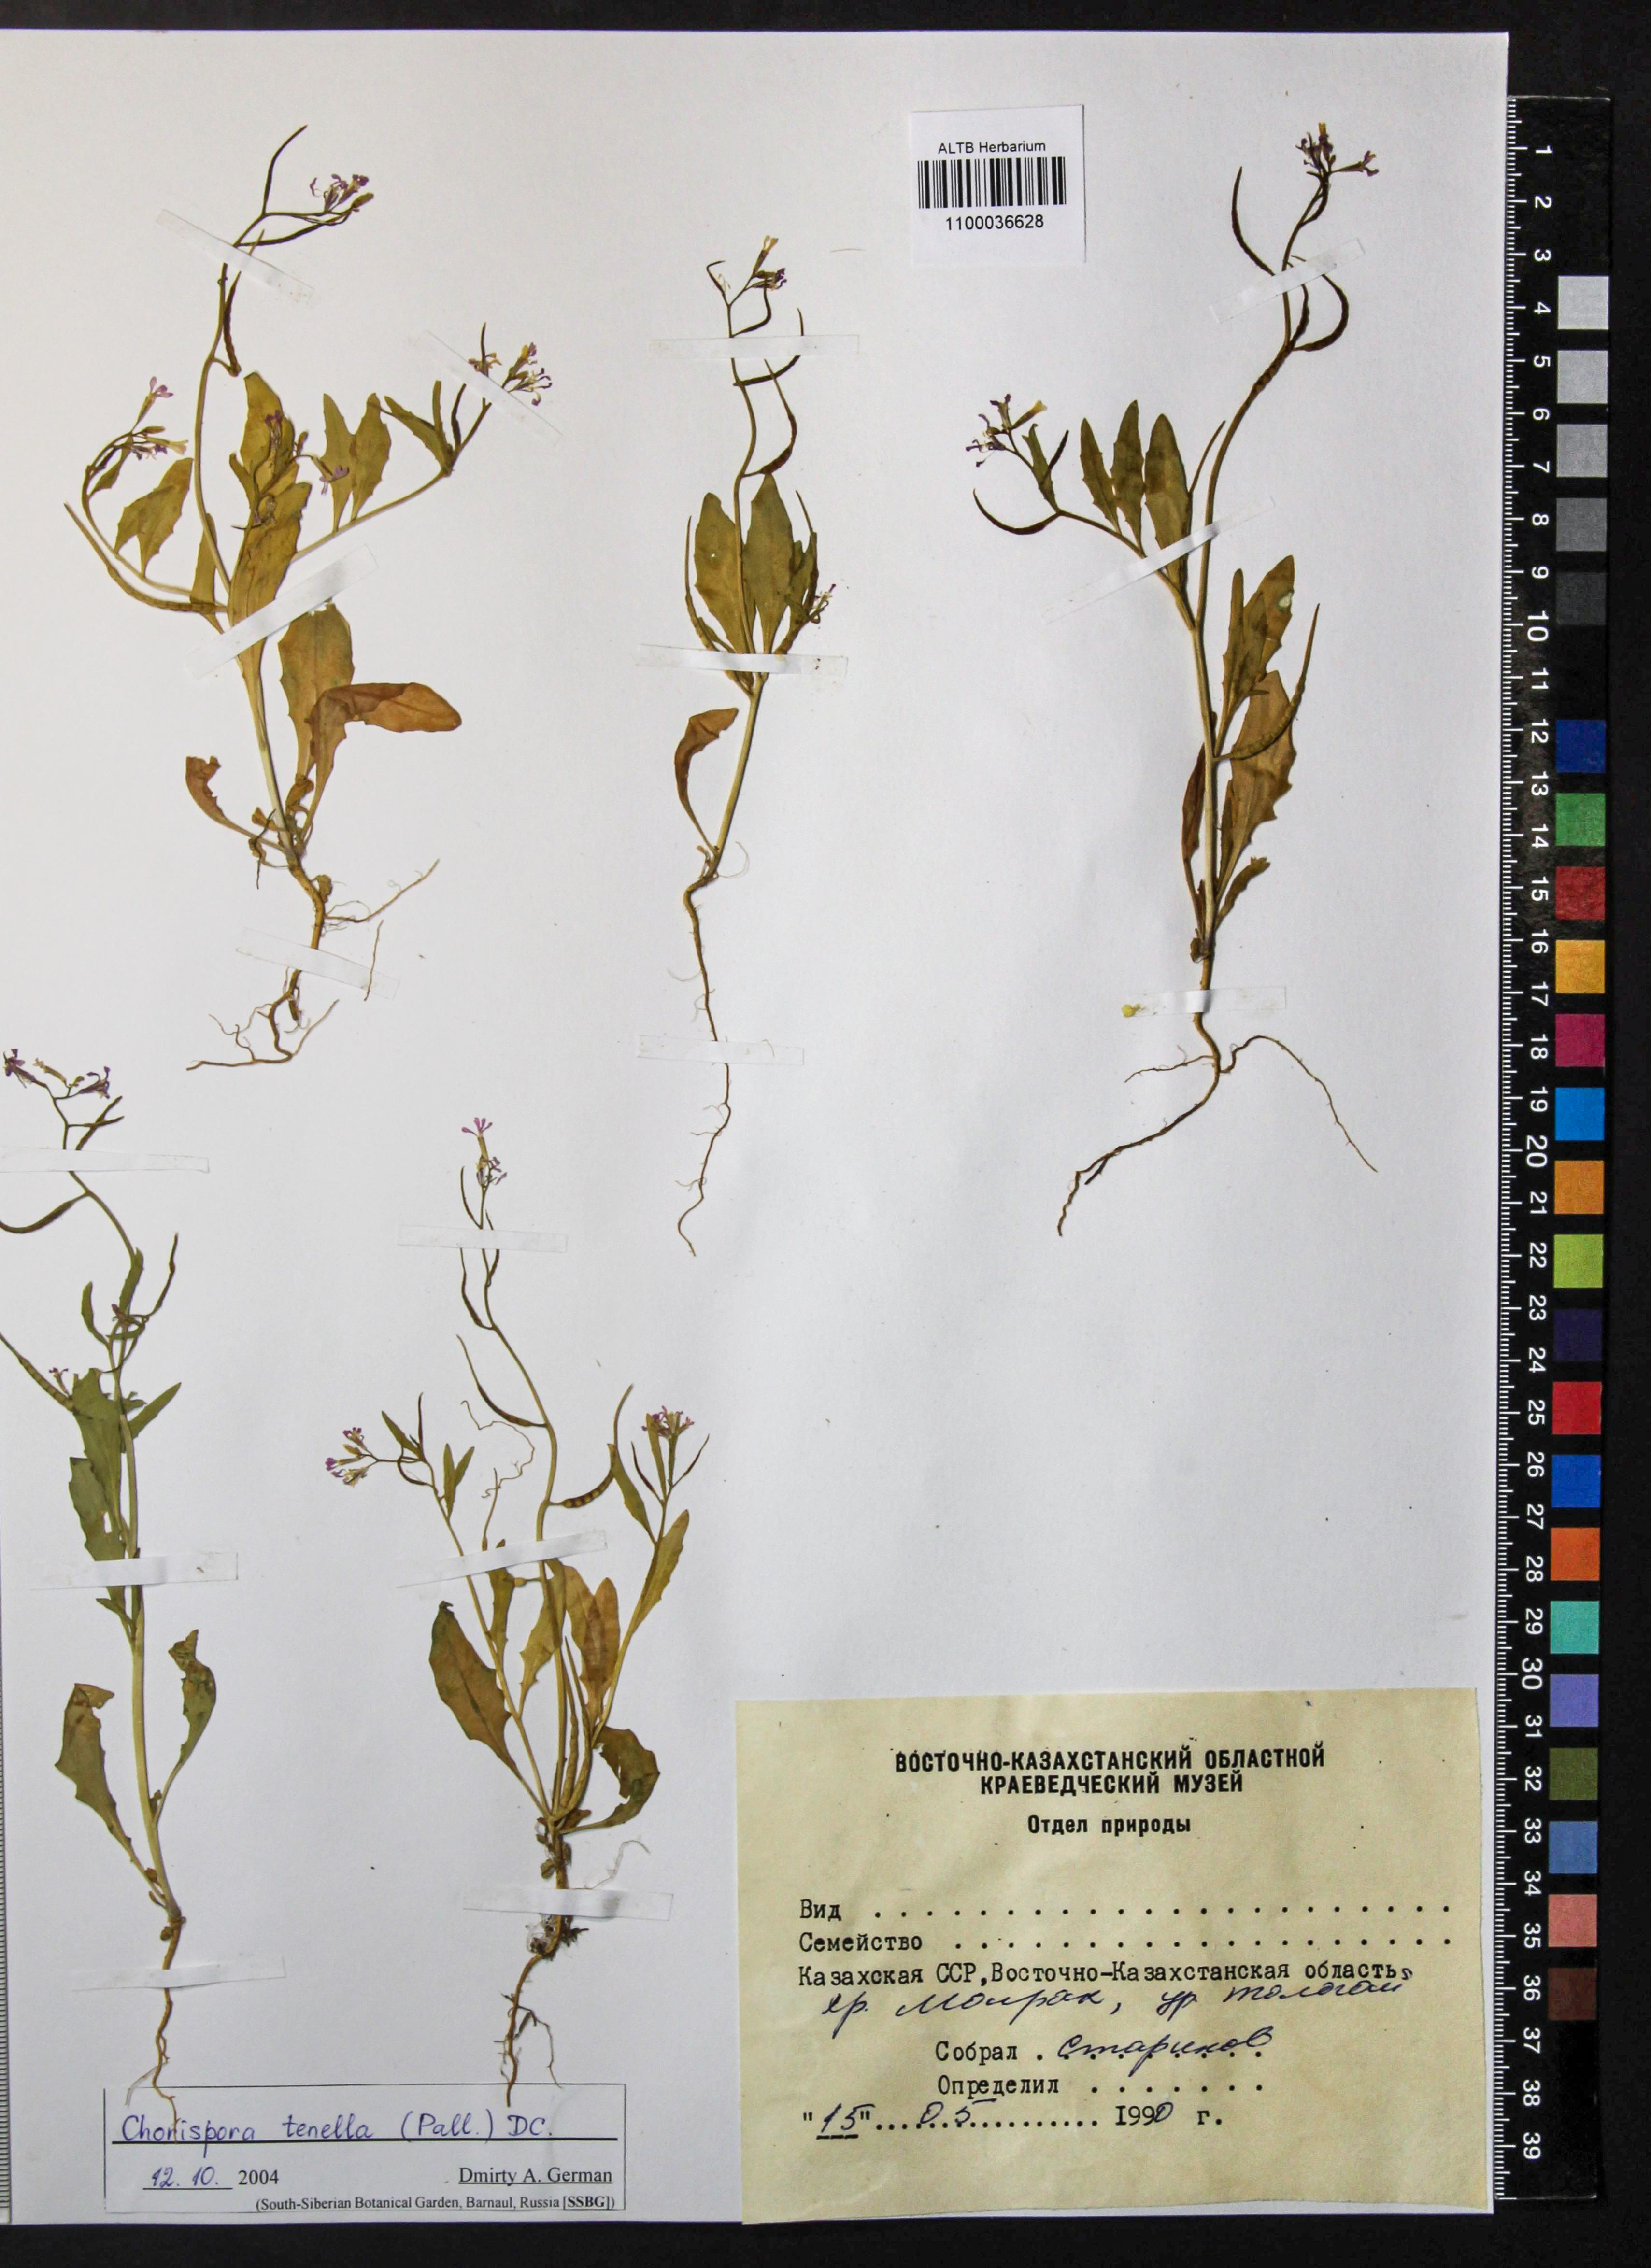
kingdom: Plantae
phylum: Tracheophyta
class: Magnoliopsida
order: Brassicales
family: Brassicaceae
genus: Chorispora
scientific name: Chorispora tenella
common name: Crossflower
